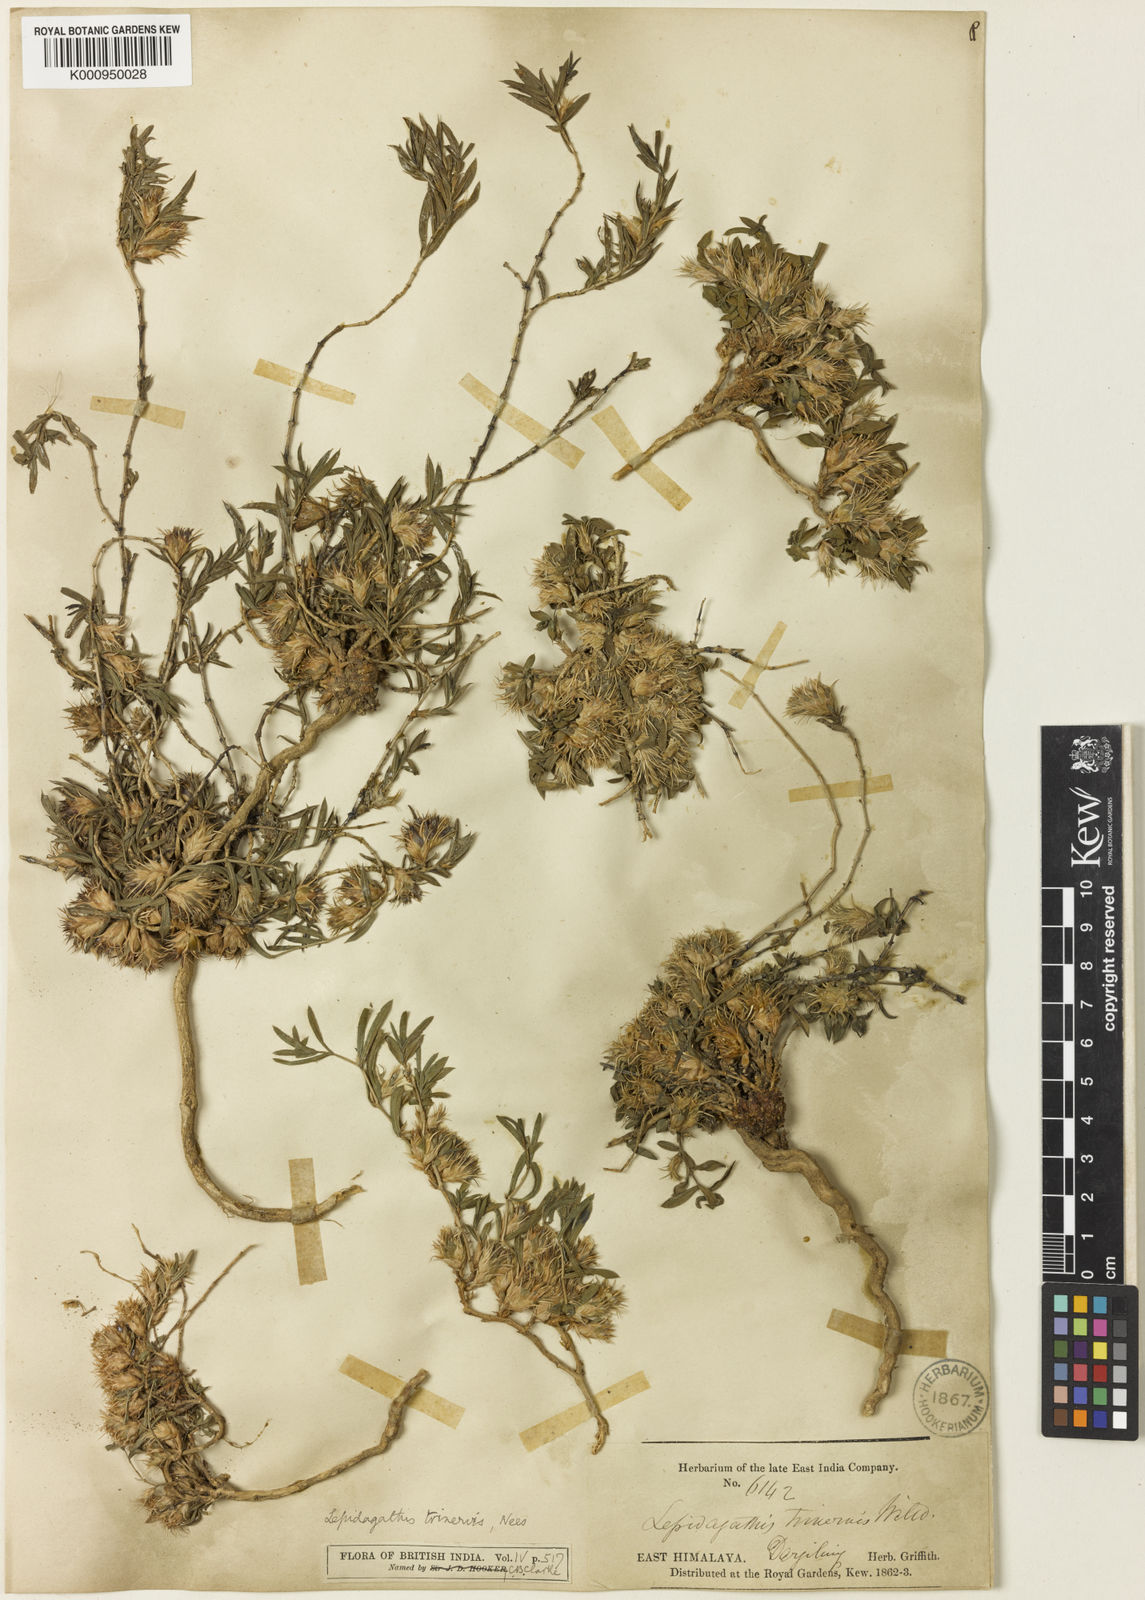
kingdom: Plantae
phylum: Tracheophyta
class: Magnoliopsida
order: Lamiales
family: Acanthaceae
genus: Lepidagathis
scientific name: Lepidagathis trinervis
